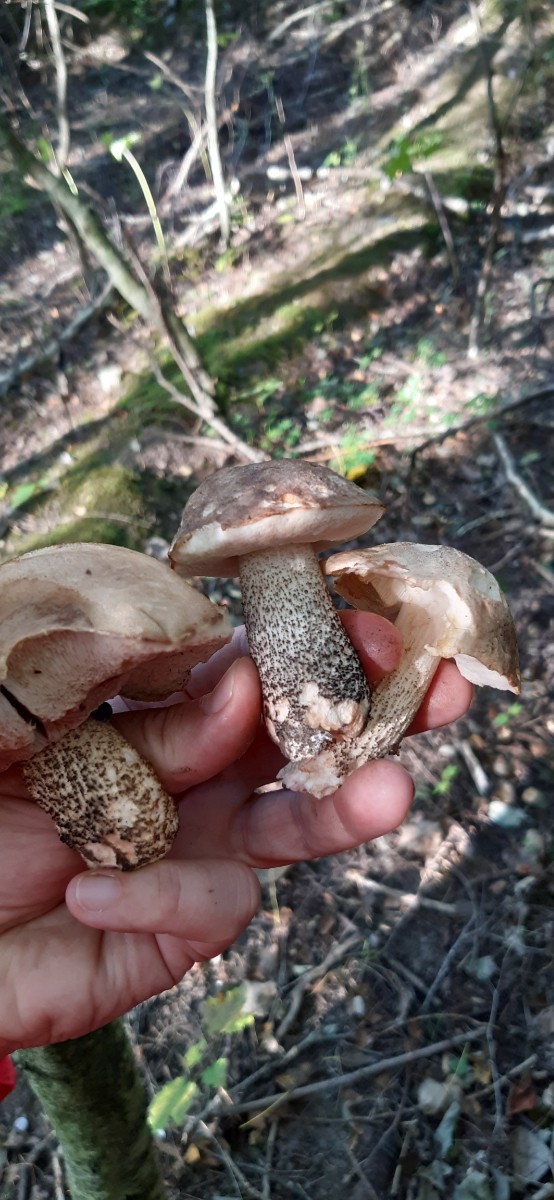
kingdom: Fungi
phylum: Basidiomycota
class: Agaricomycetes
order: Boletales
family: Boletaceae
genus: Leccinum
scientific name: Leccinum scabrum
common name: brun skælrørhat
